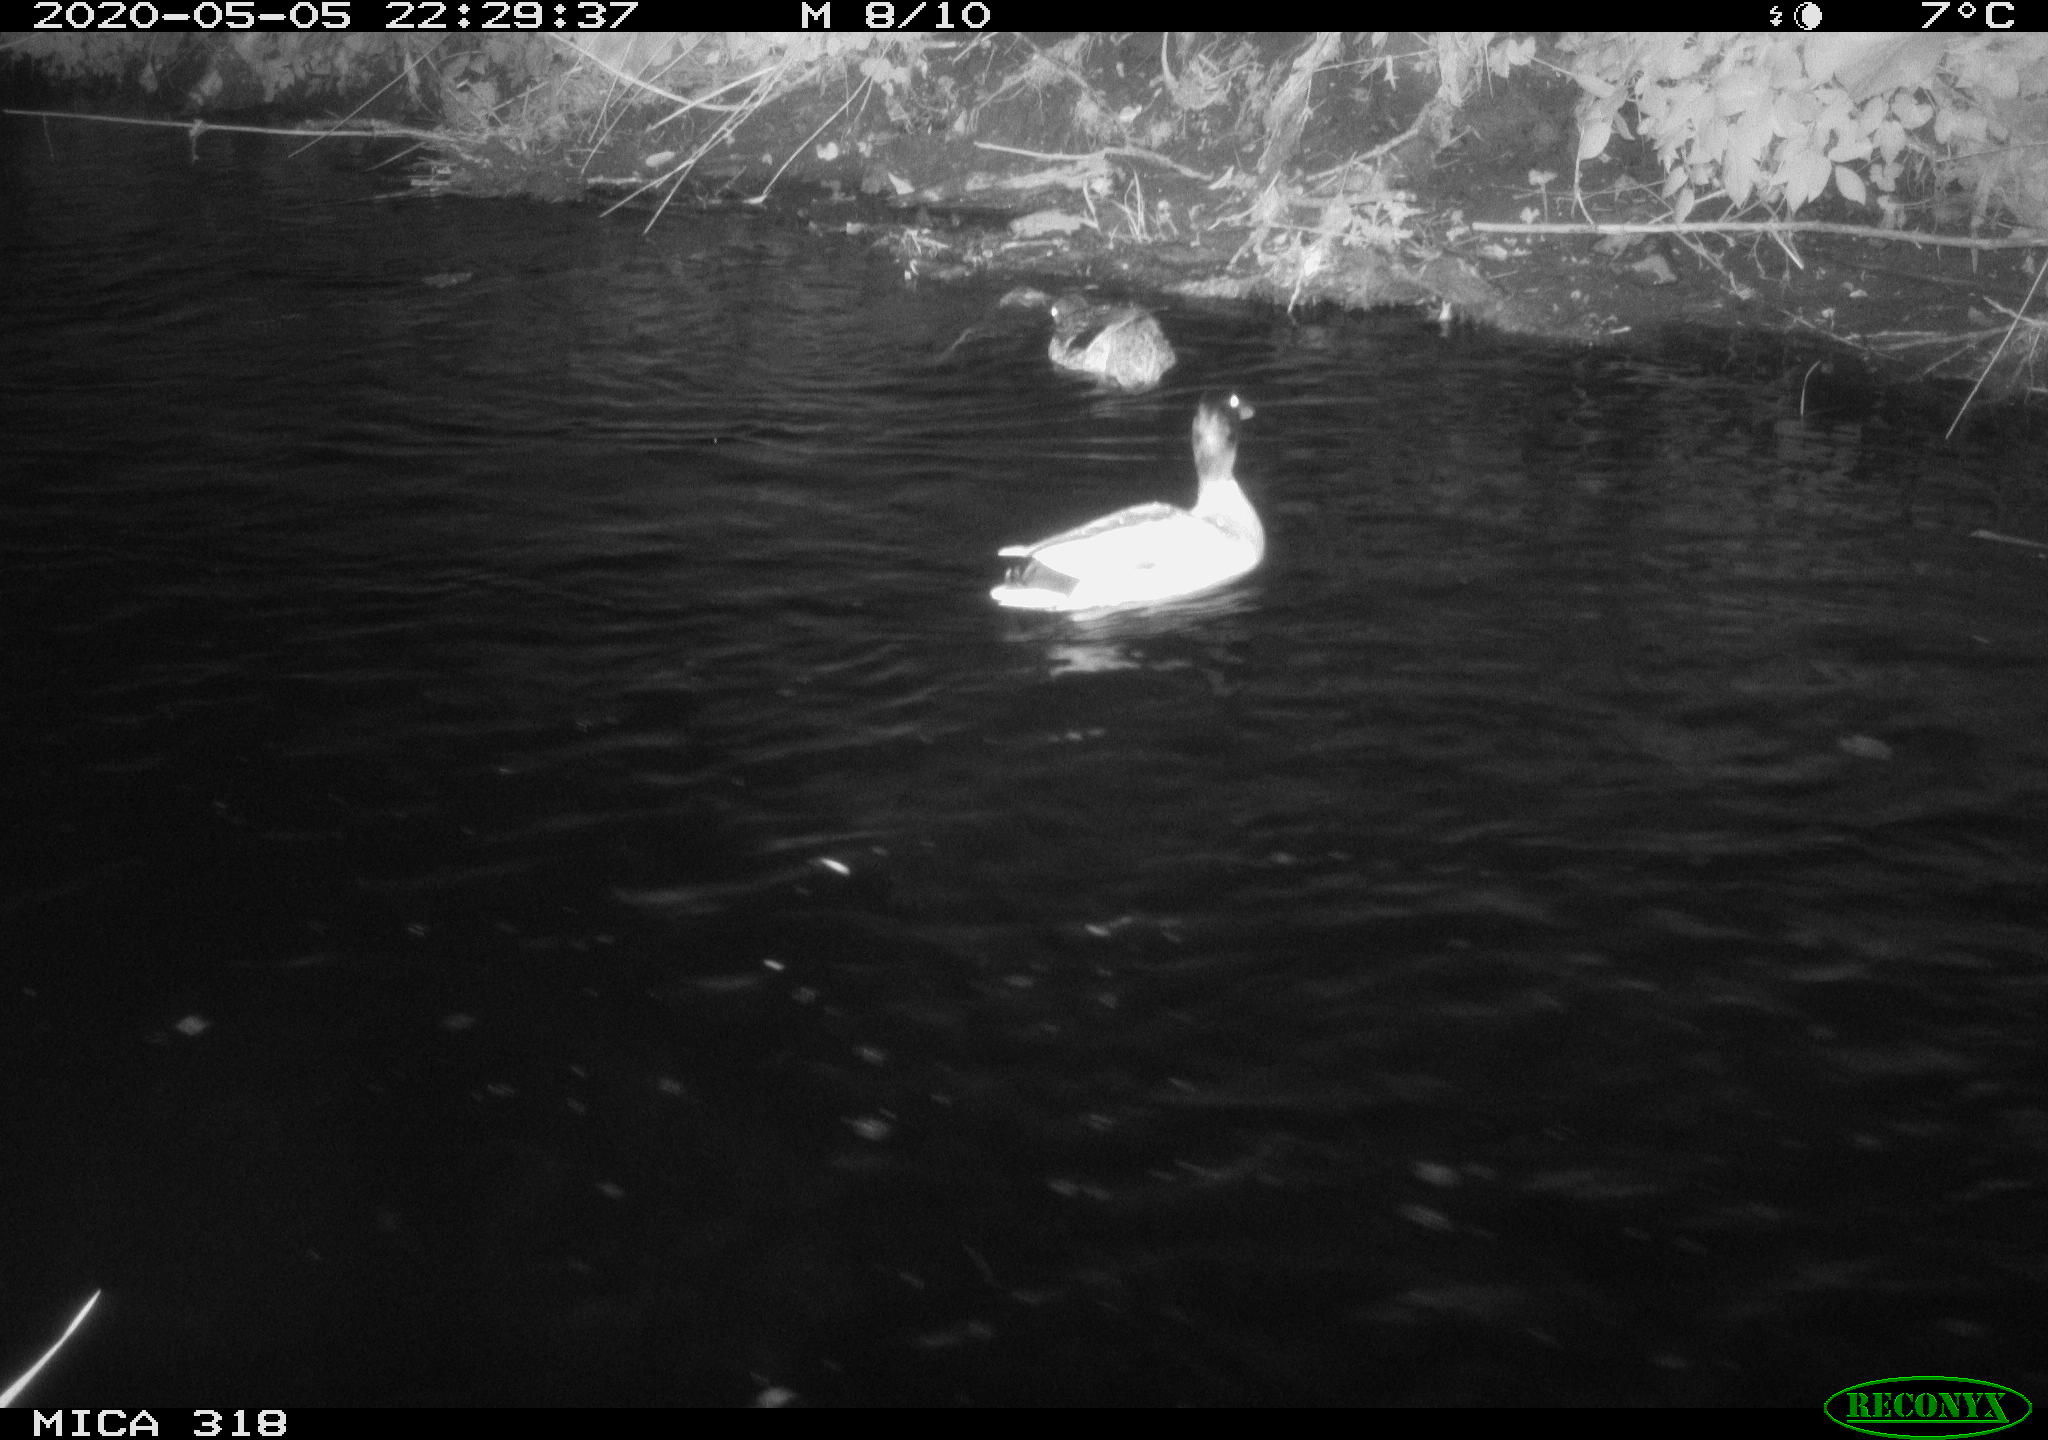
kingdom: Animalia
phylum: Chordata
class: Aves
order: Anseriformes
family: Anatidae
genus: Anas
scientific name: Anas platyrhynchos
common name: Mallard
